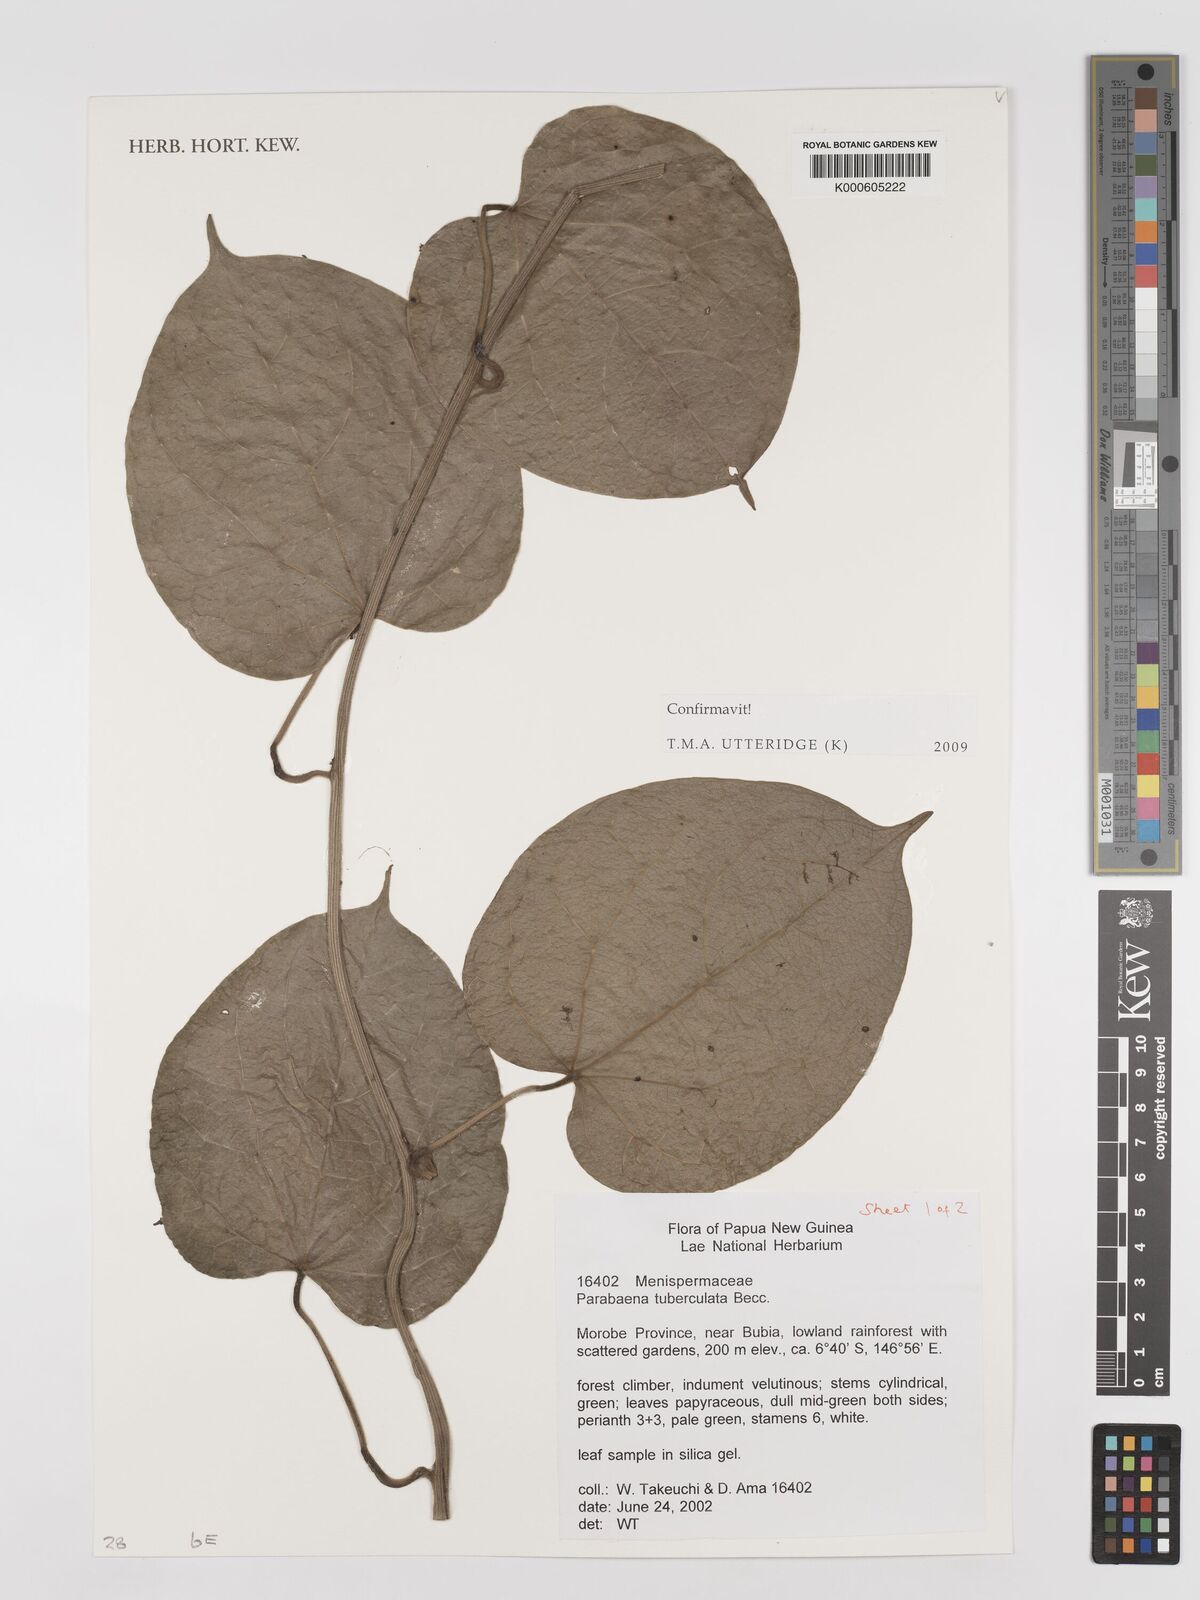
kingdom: Plantae
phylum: Tracheophyta
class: Magnoliopsida
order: Ranunculales
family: Menispermaceae
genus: Parabaena
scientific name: Parabaena tuberculata
